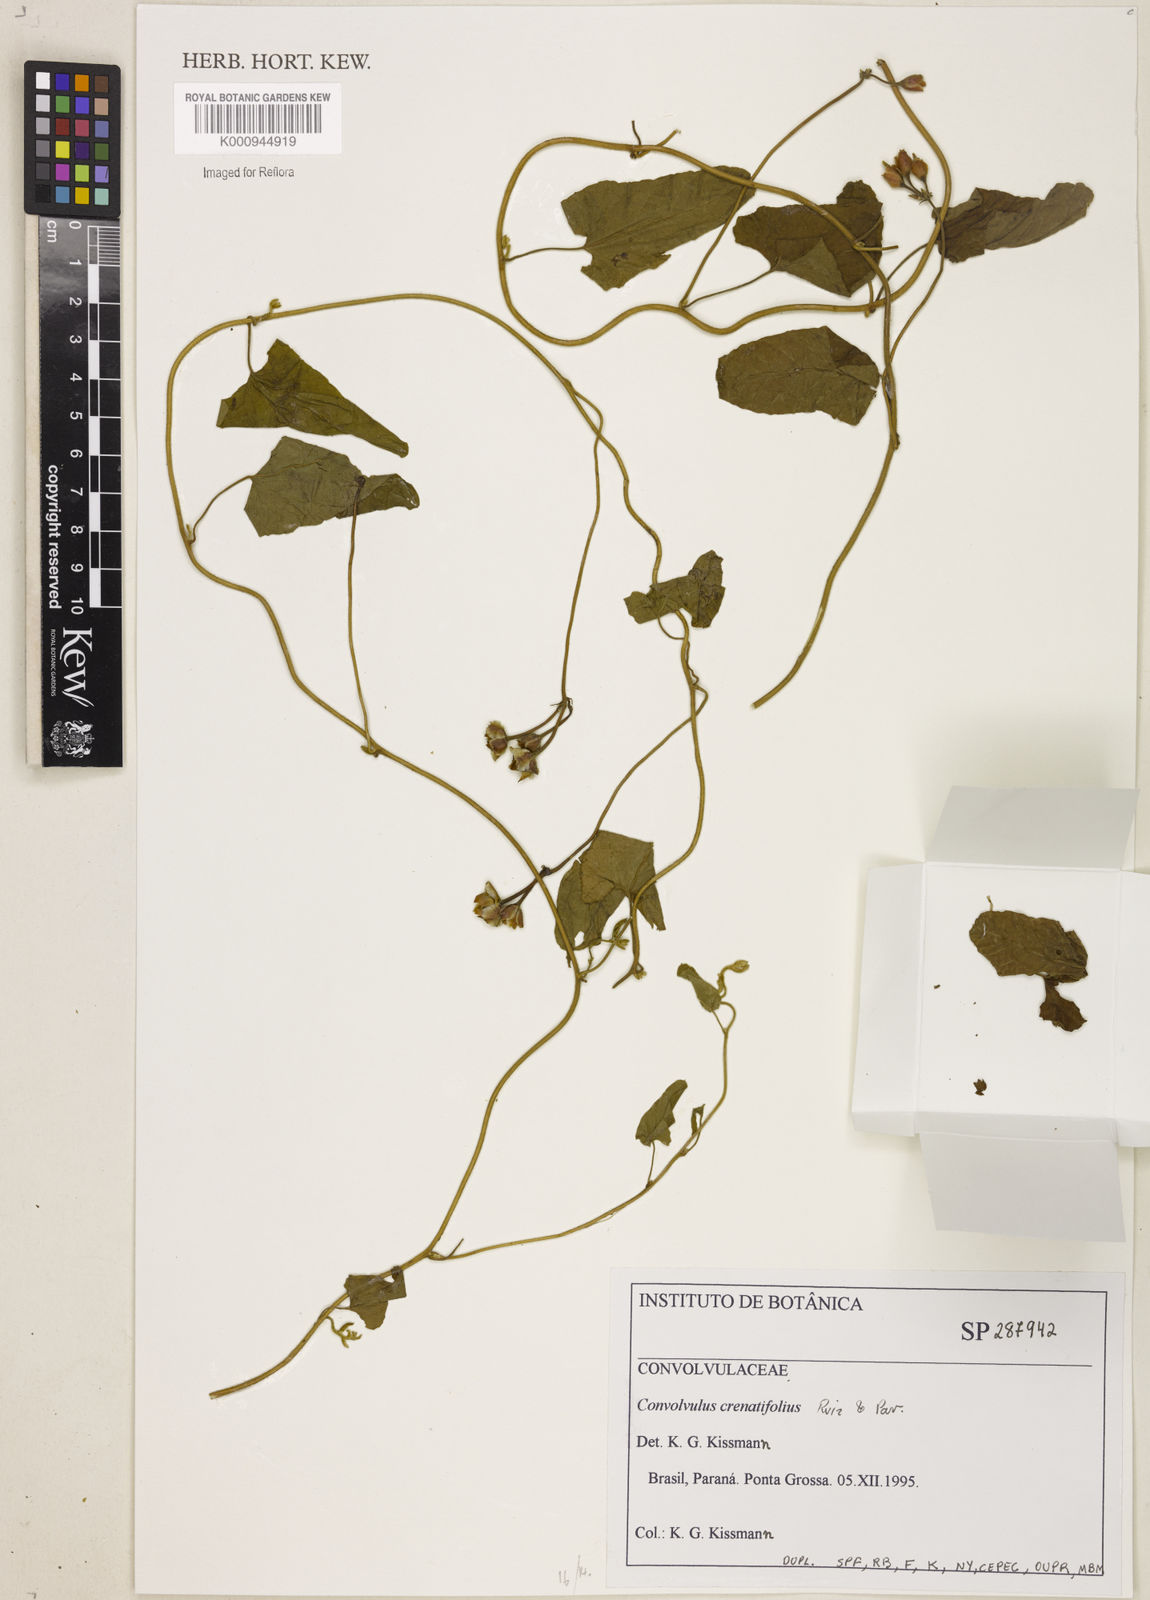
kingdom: Plantae
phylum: Tracheophyta
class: Magnoliopsida
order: Solanales
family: Convolvulaceae
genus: Convolvulus
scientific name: Convolvulus crenatifolius
